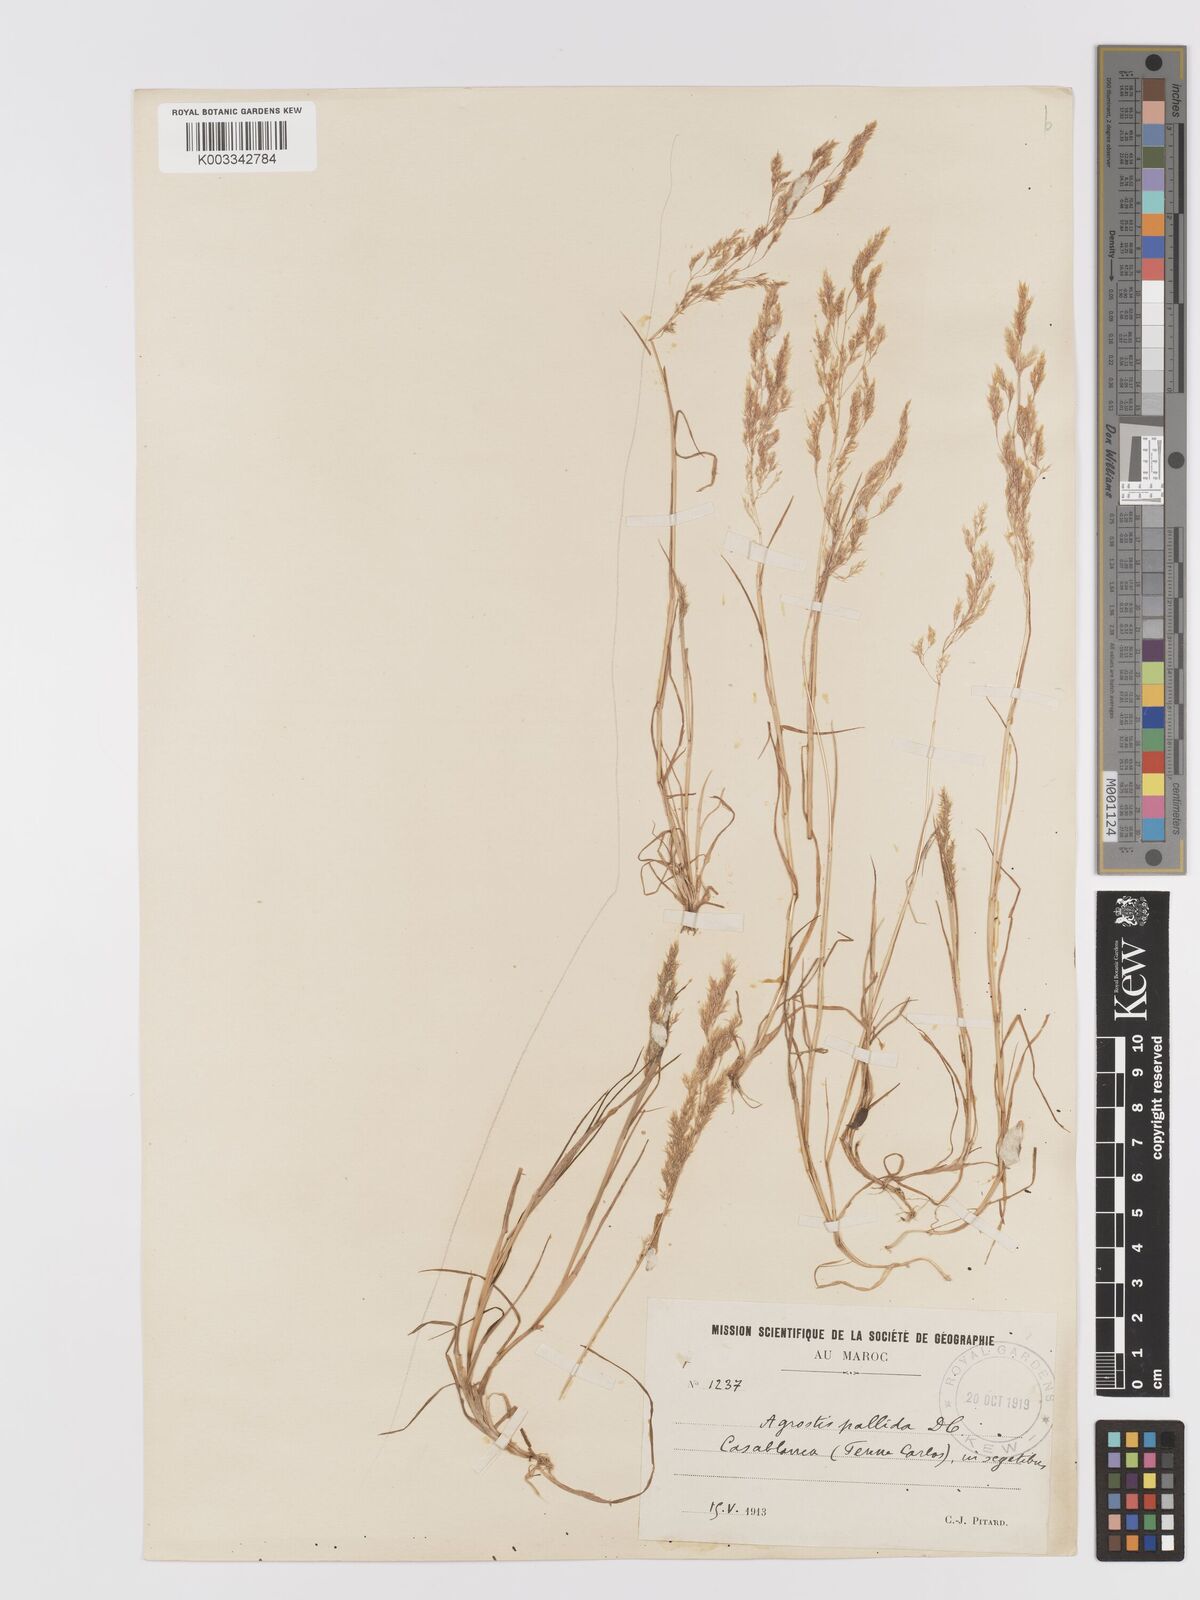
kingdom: Plantae
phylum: Tracheophyta
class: Liliopsida
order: Poales
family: Poaceae
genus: Agrostis
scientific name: Agrostis pourretii
